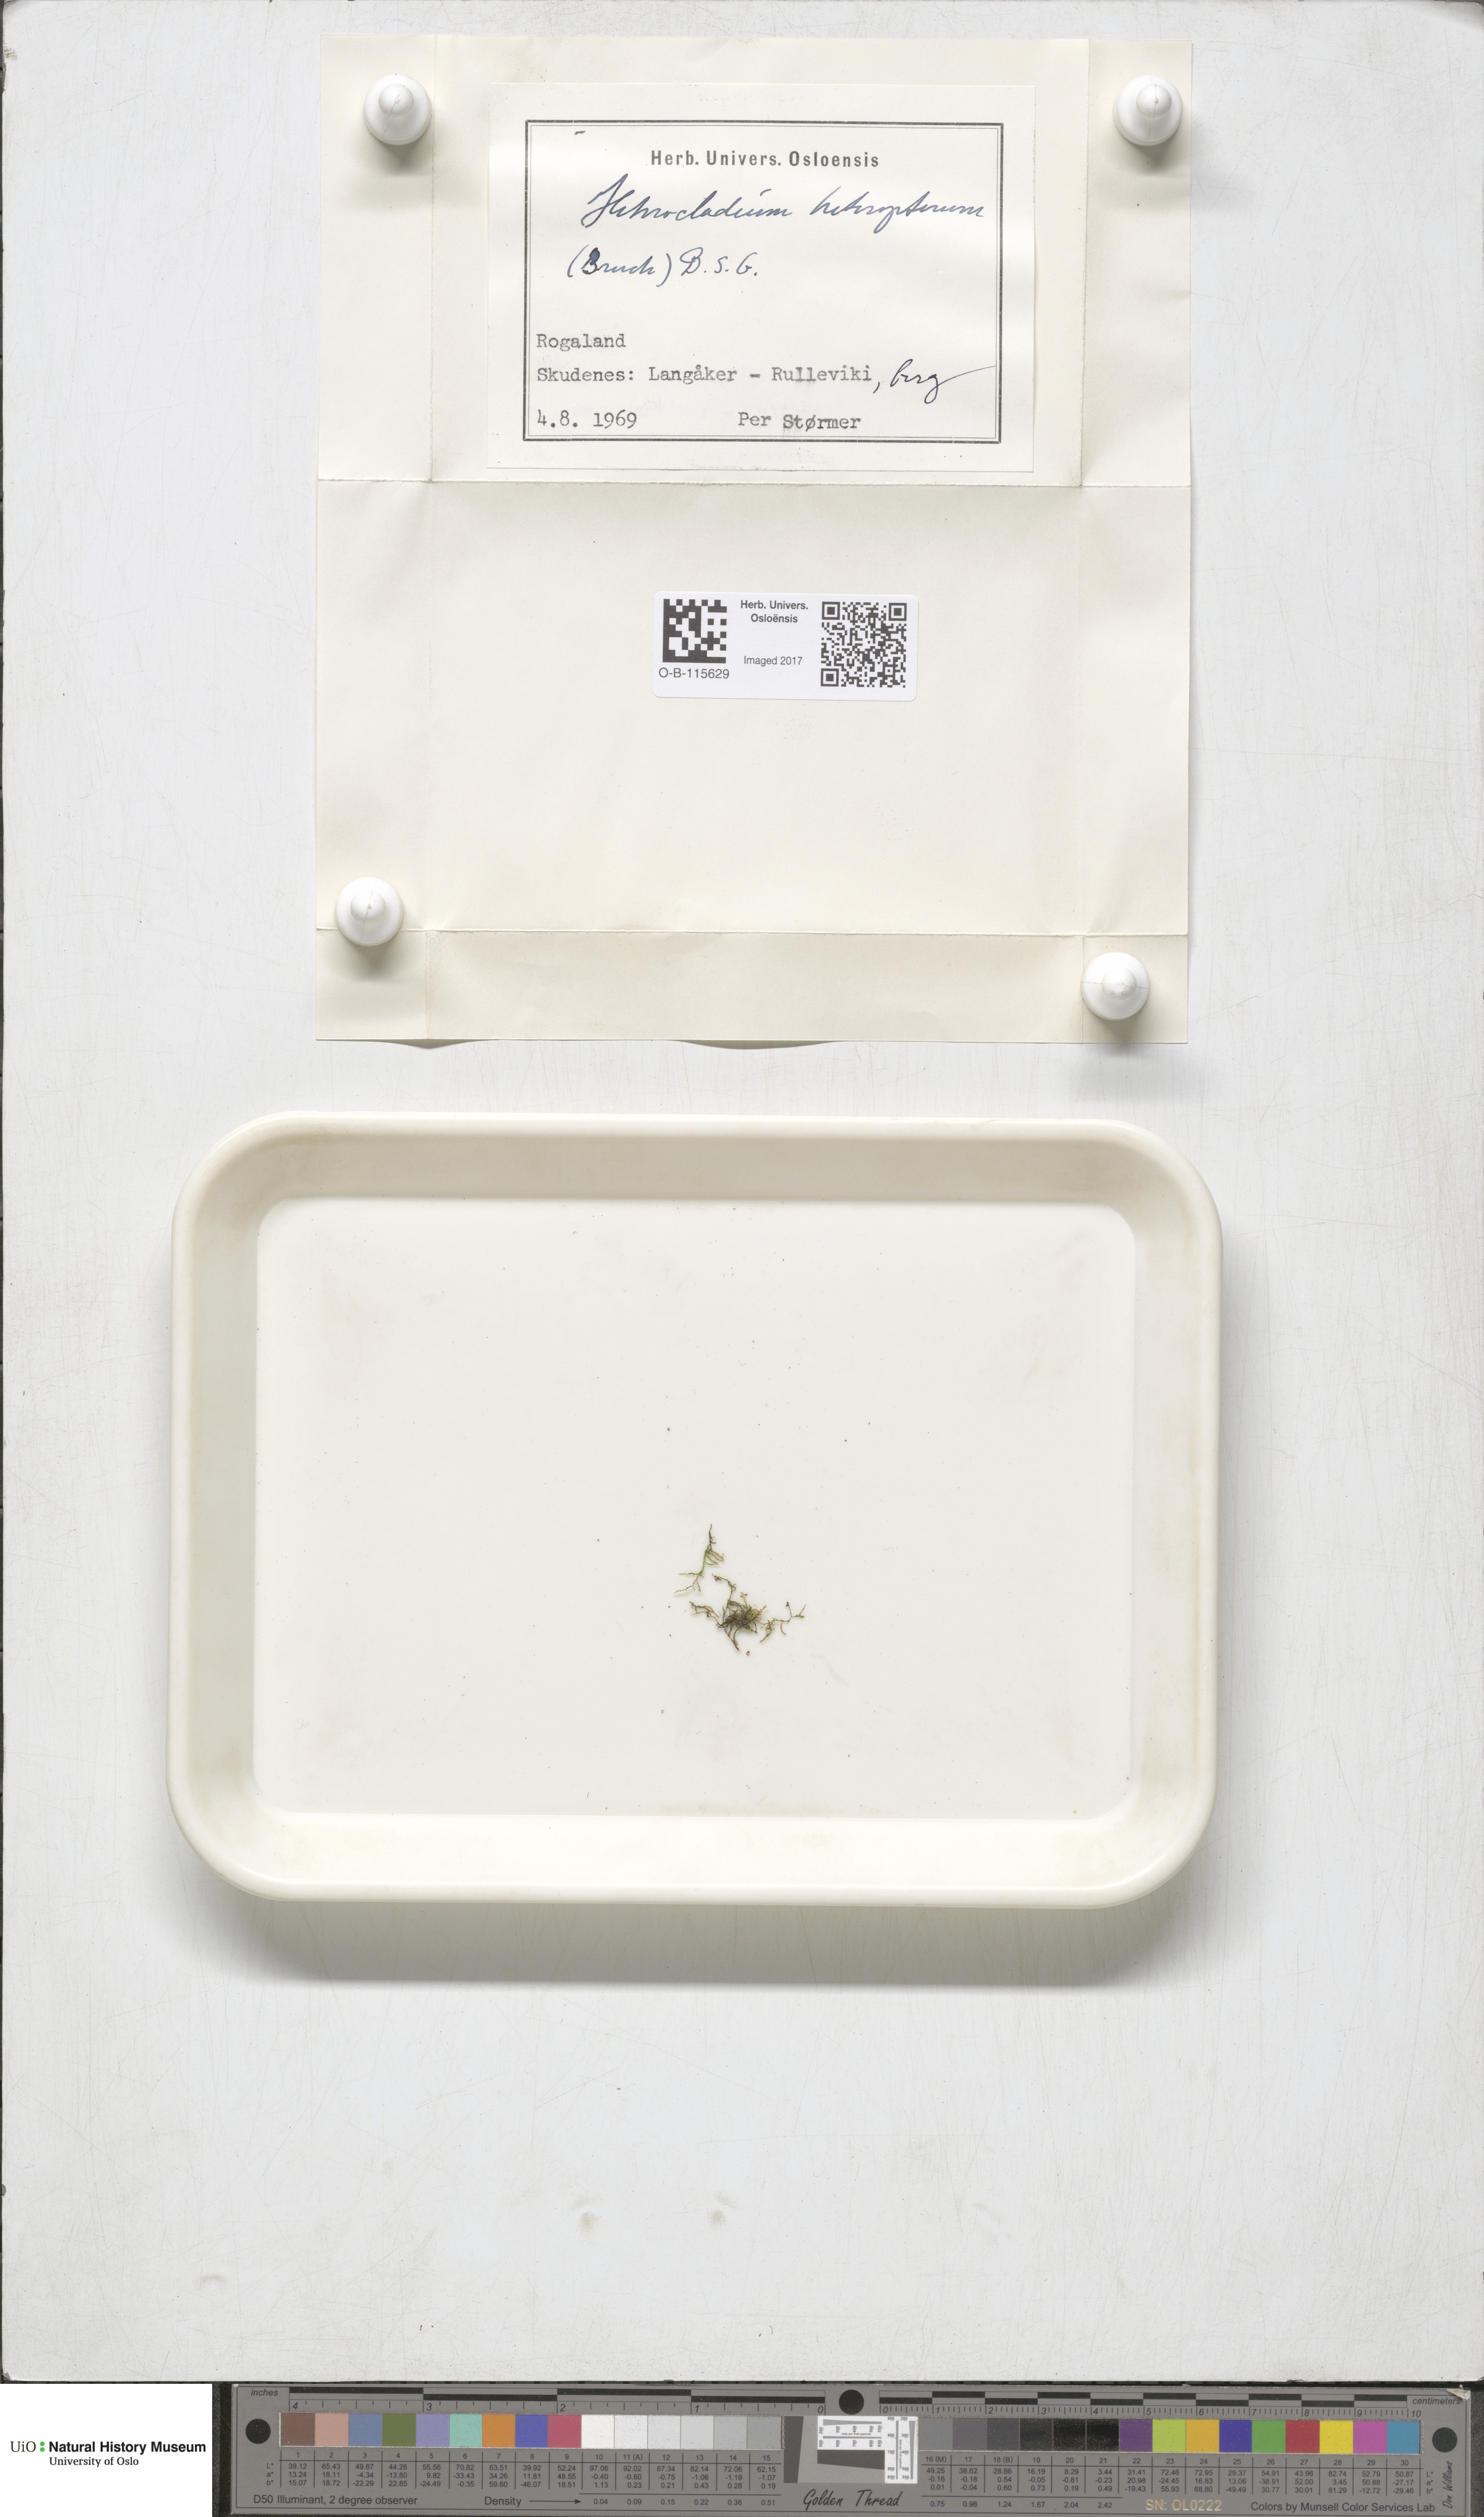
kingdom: Plantae
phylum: Bryophyta
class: Bryopsida
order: Hypnales
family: Lembophyllaceae
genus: Heterocladium
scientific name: Heterocladium heteropterum
